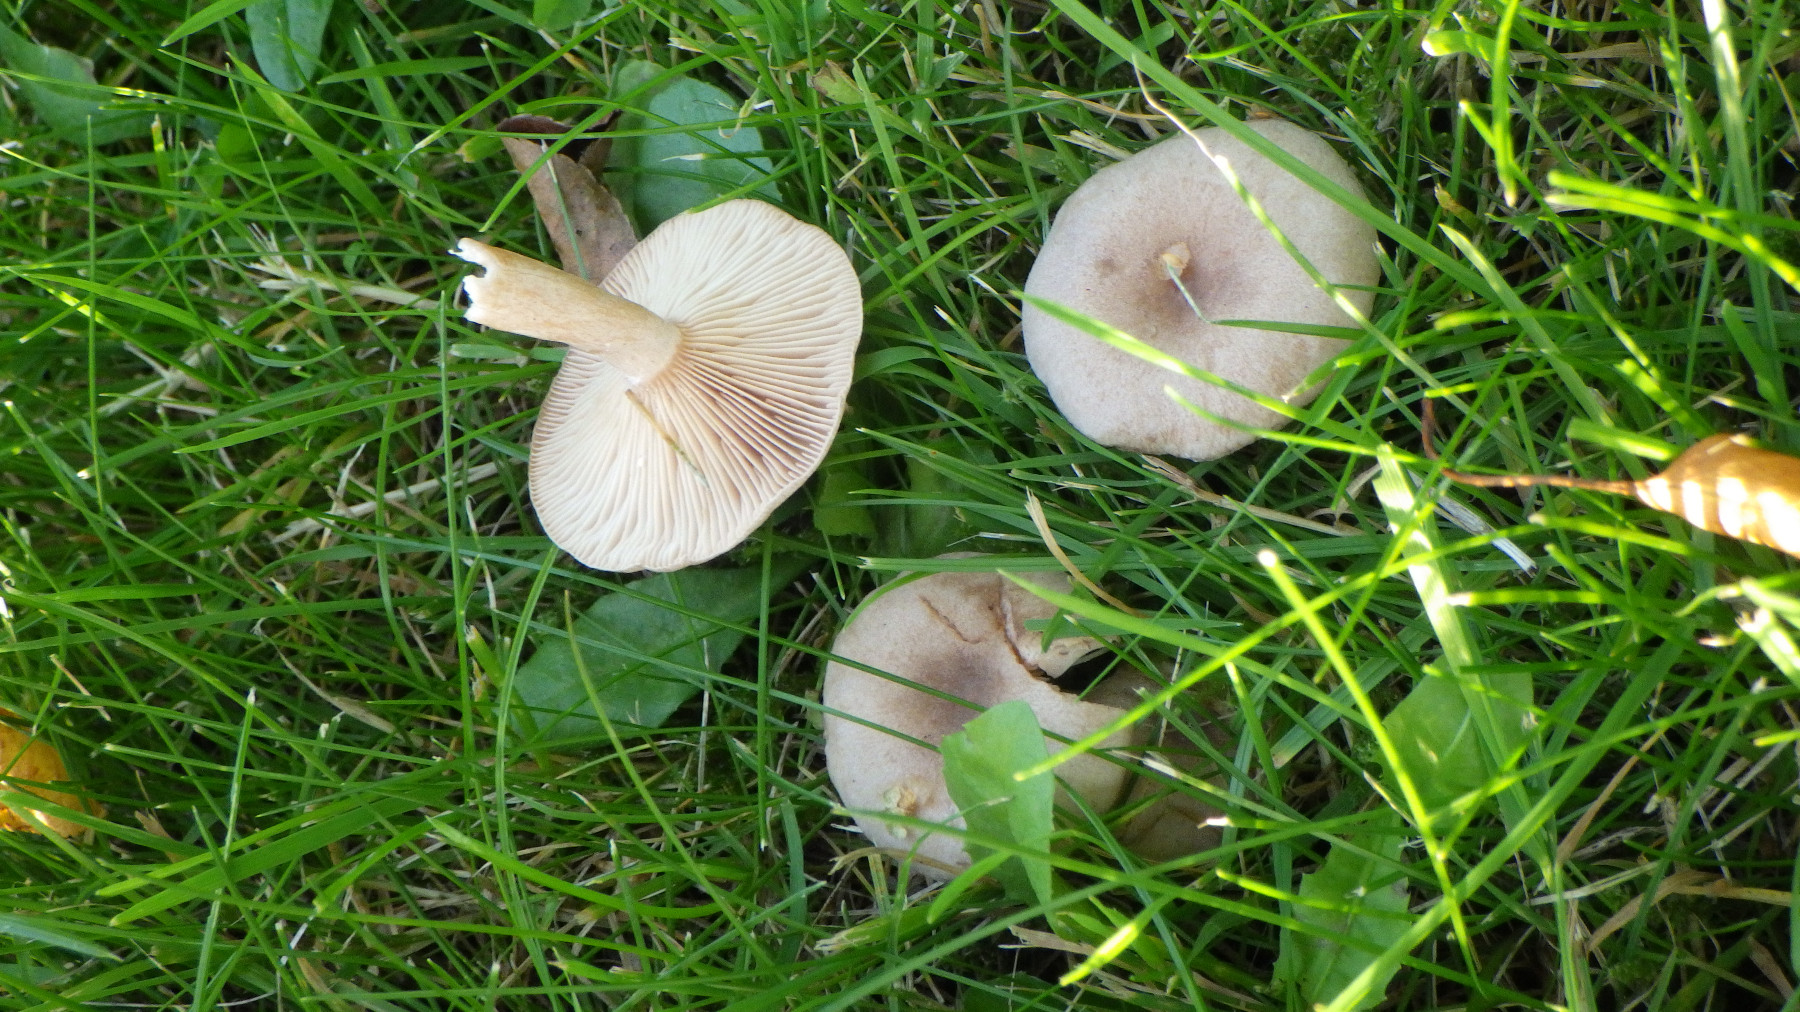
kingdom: Fungi
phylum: Basidiomycota
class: Agaricomycetes
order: Russulales
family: Russulaceae
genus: Lactarius
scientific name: Lactarius glyciosmus
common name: kokos-mælkehat
